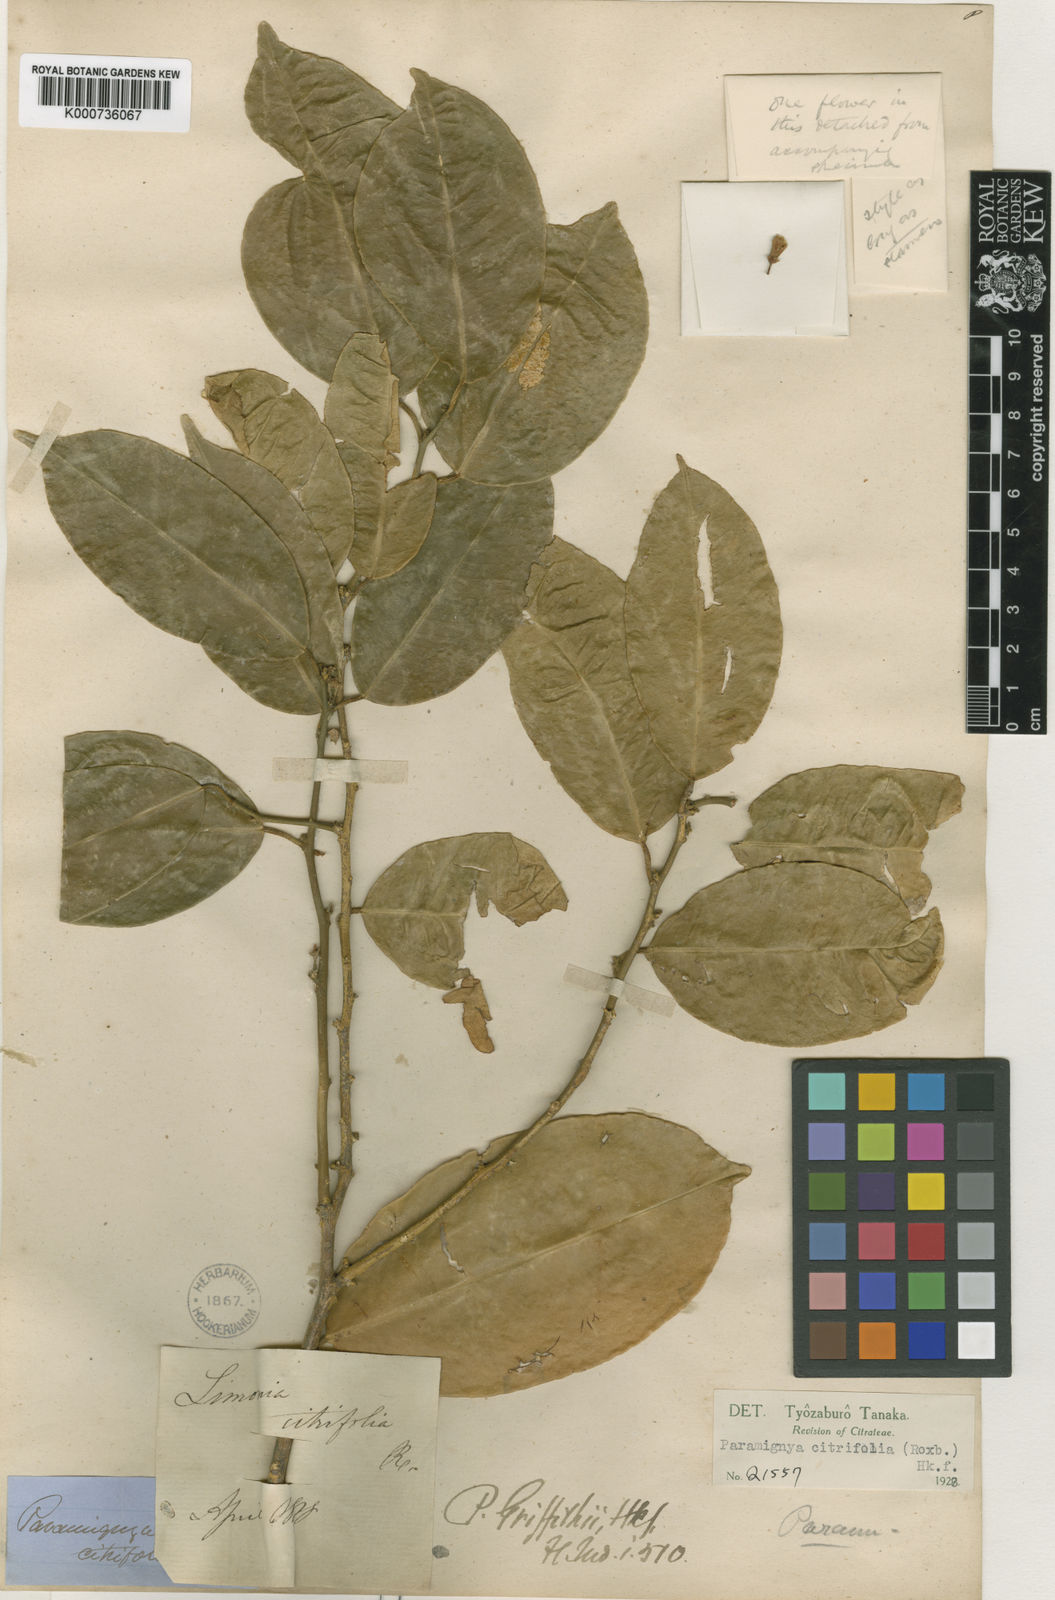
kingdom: Plantae
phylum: Tracheophyta
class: Magnoliopsida
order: Sapindales
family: Rutaceae
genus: Paramignya
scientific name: Paramignya
